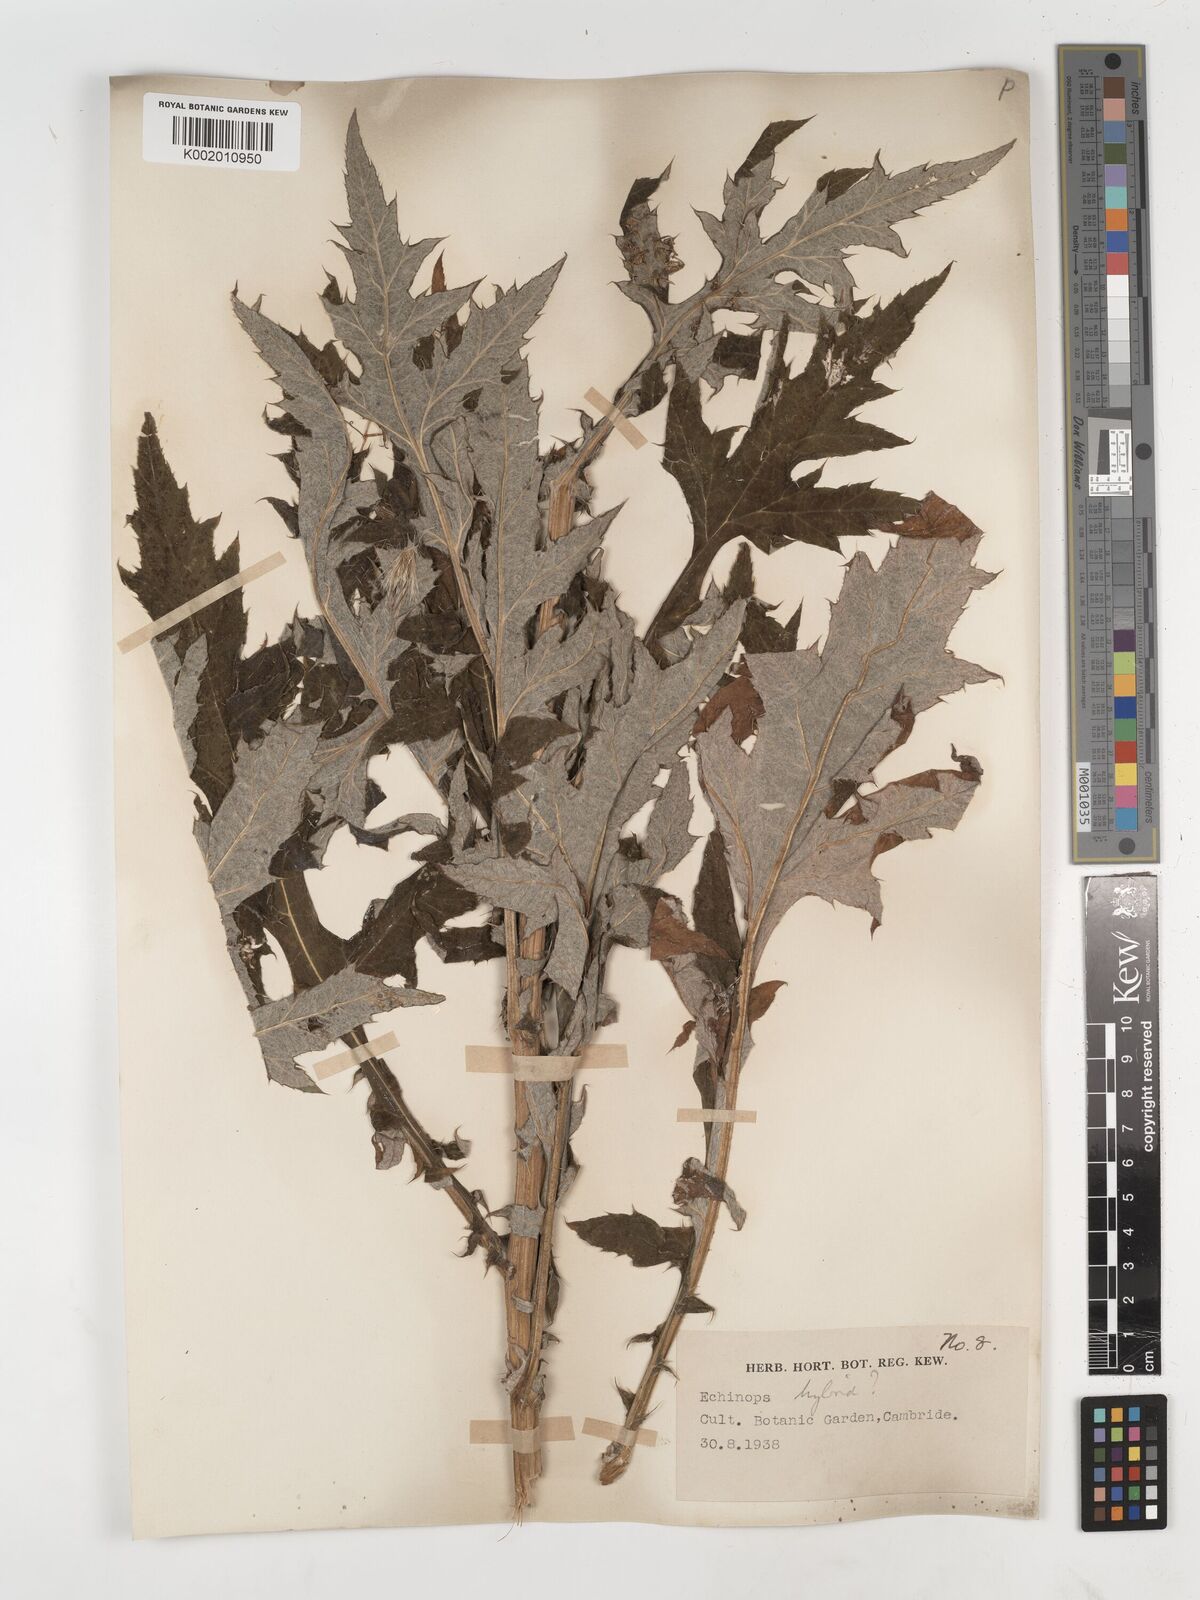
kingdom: Plantae
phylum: Tracheophyta
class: Magnoliopsida
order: Asterales
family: Asteraceae
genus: Echinops
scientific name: Echinops
